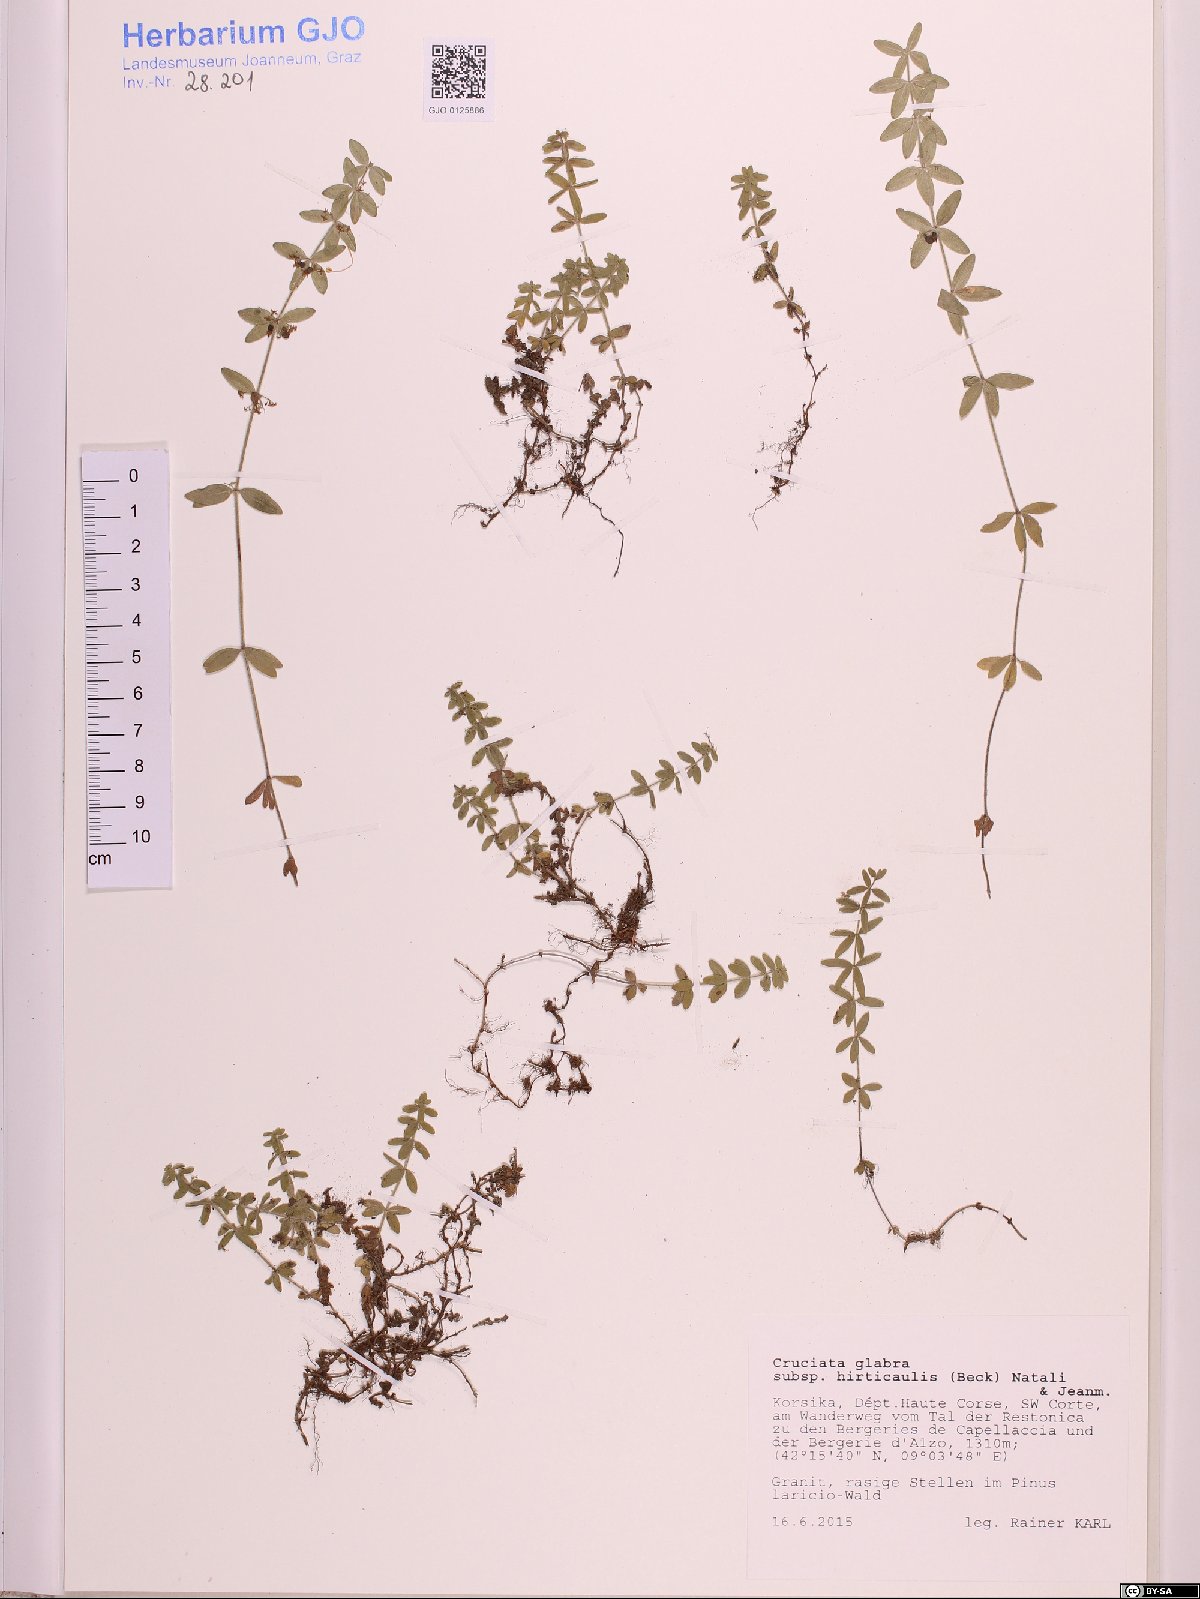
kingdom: Plantae
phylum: Tracheophyta
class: Magnoliopsida
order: Gentianales
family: Rubiaceae
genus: Cruciata
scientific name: Cruciata glabra
